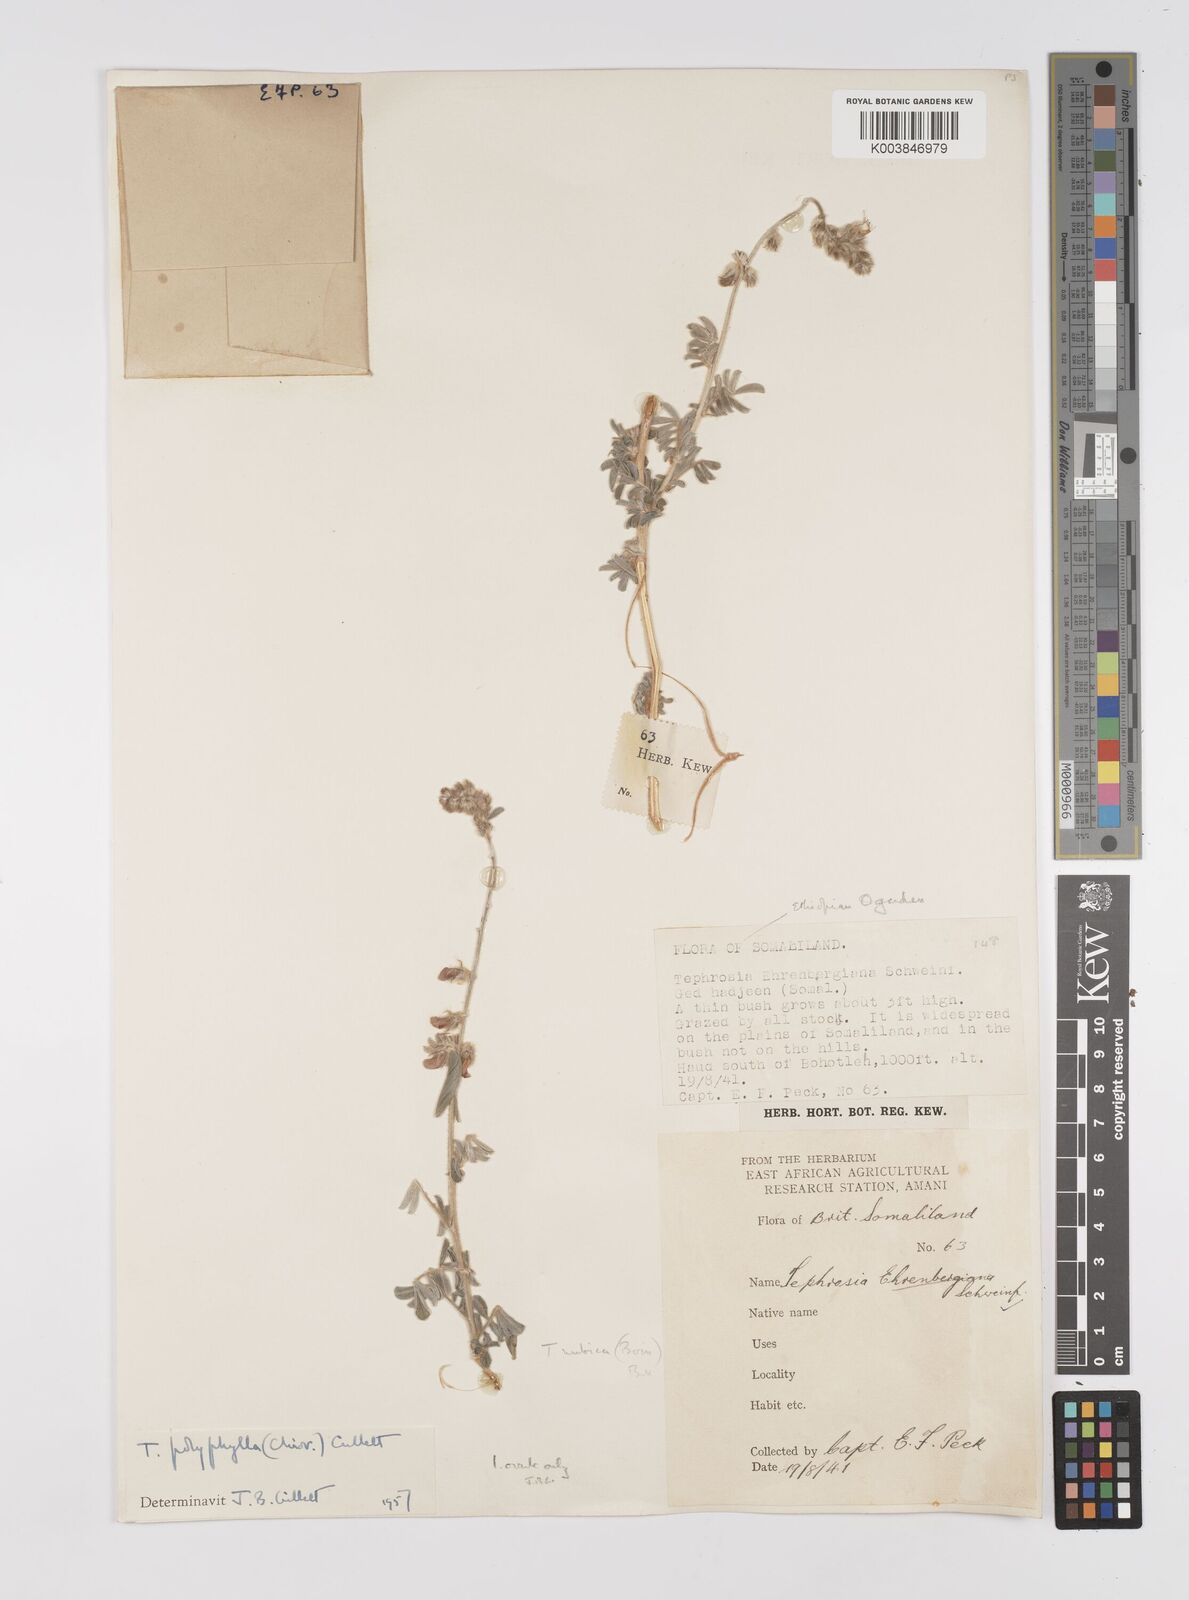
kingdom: Plantae
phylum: Tracheophyta
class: Magnoliopsida
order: Fabales
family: Fabaceae
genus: Tephrosia
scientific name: Tephrosia polyphylla
